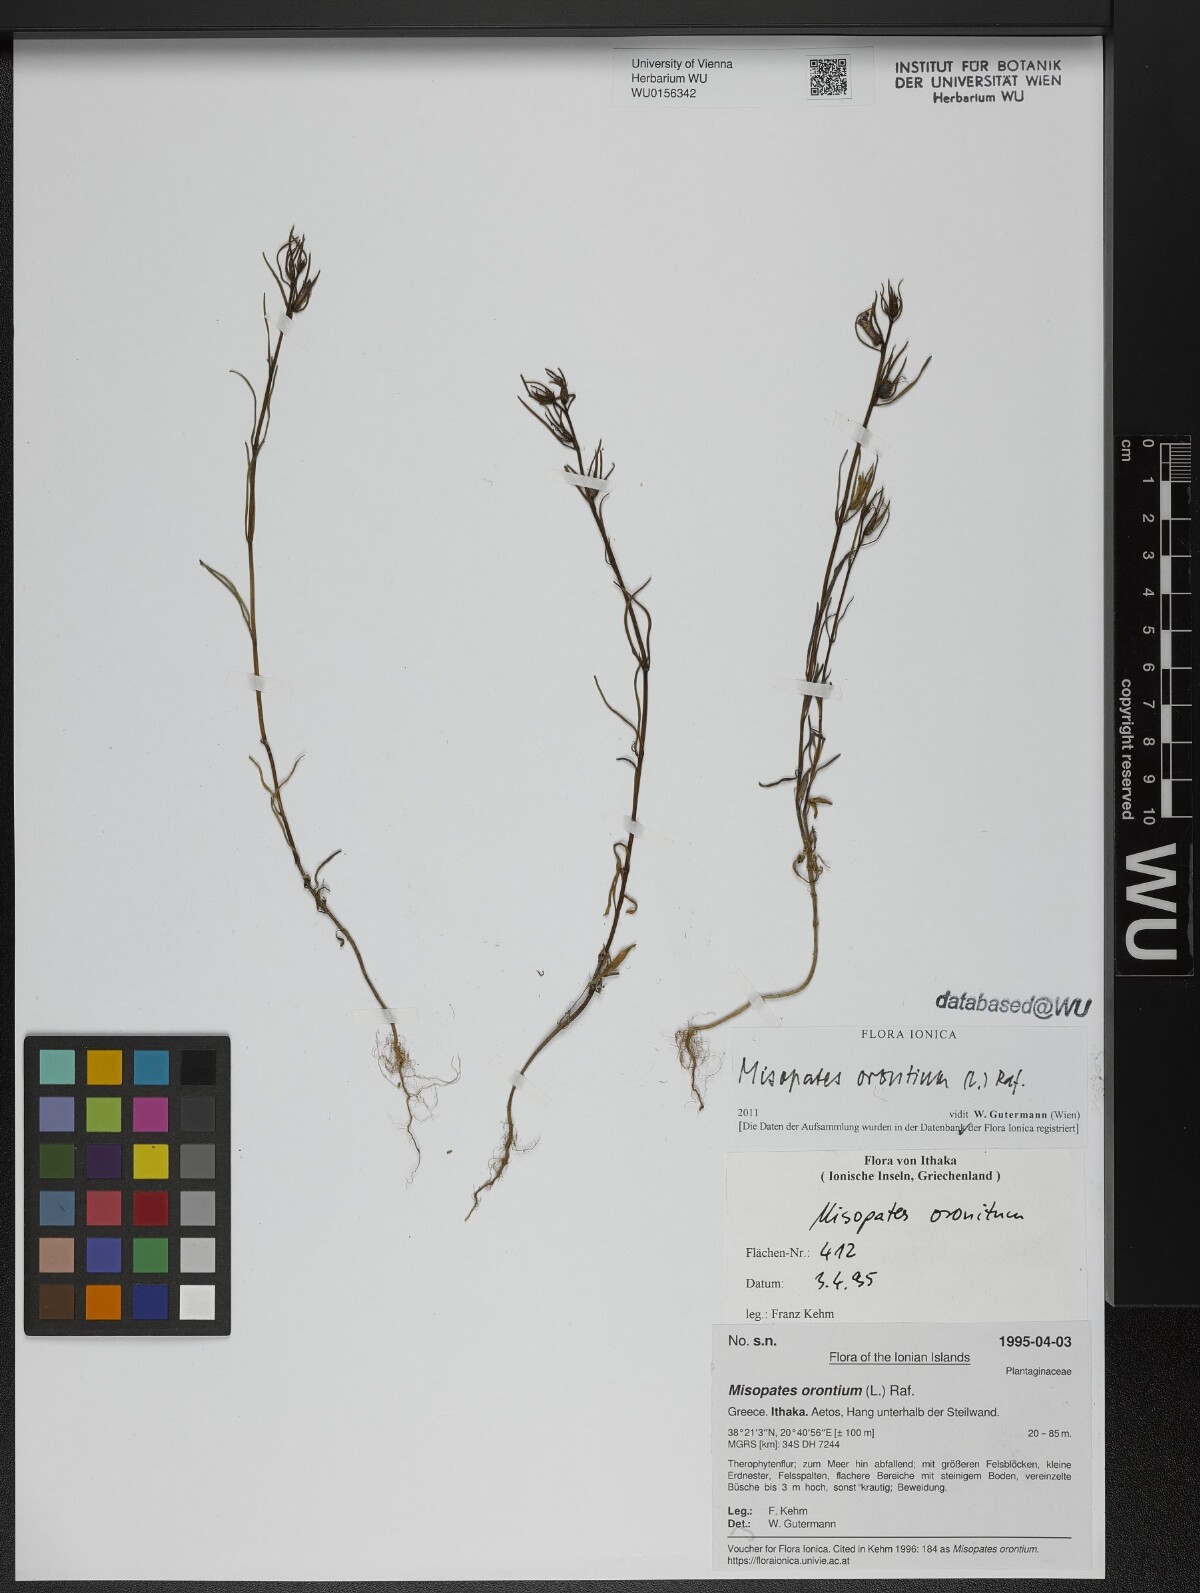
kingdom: Plantae
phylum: Tracheophyta
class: Magnoliopsida
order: Lamiales
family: Plantaginaceae
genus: Misopates
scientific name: Misopates orontium
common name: Weasel's-snout
